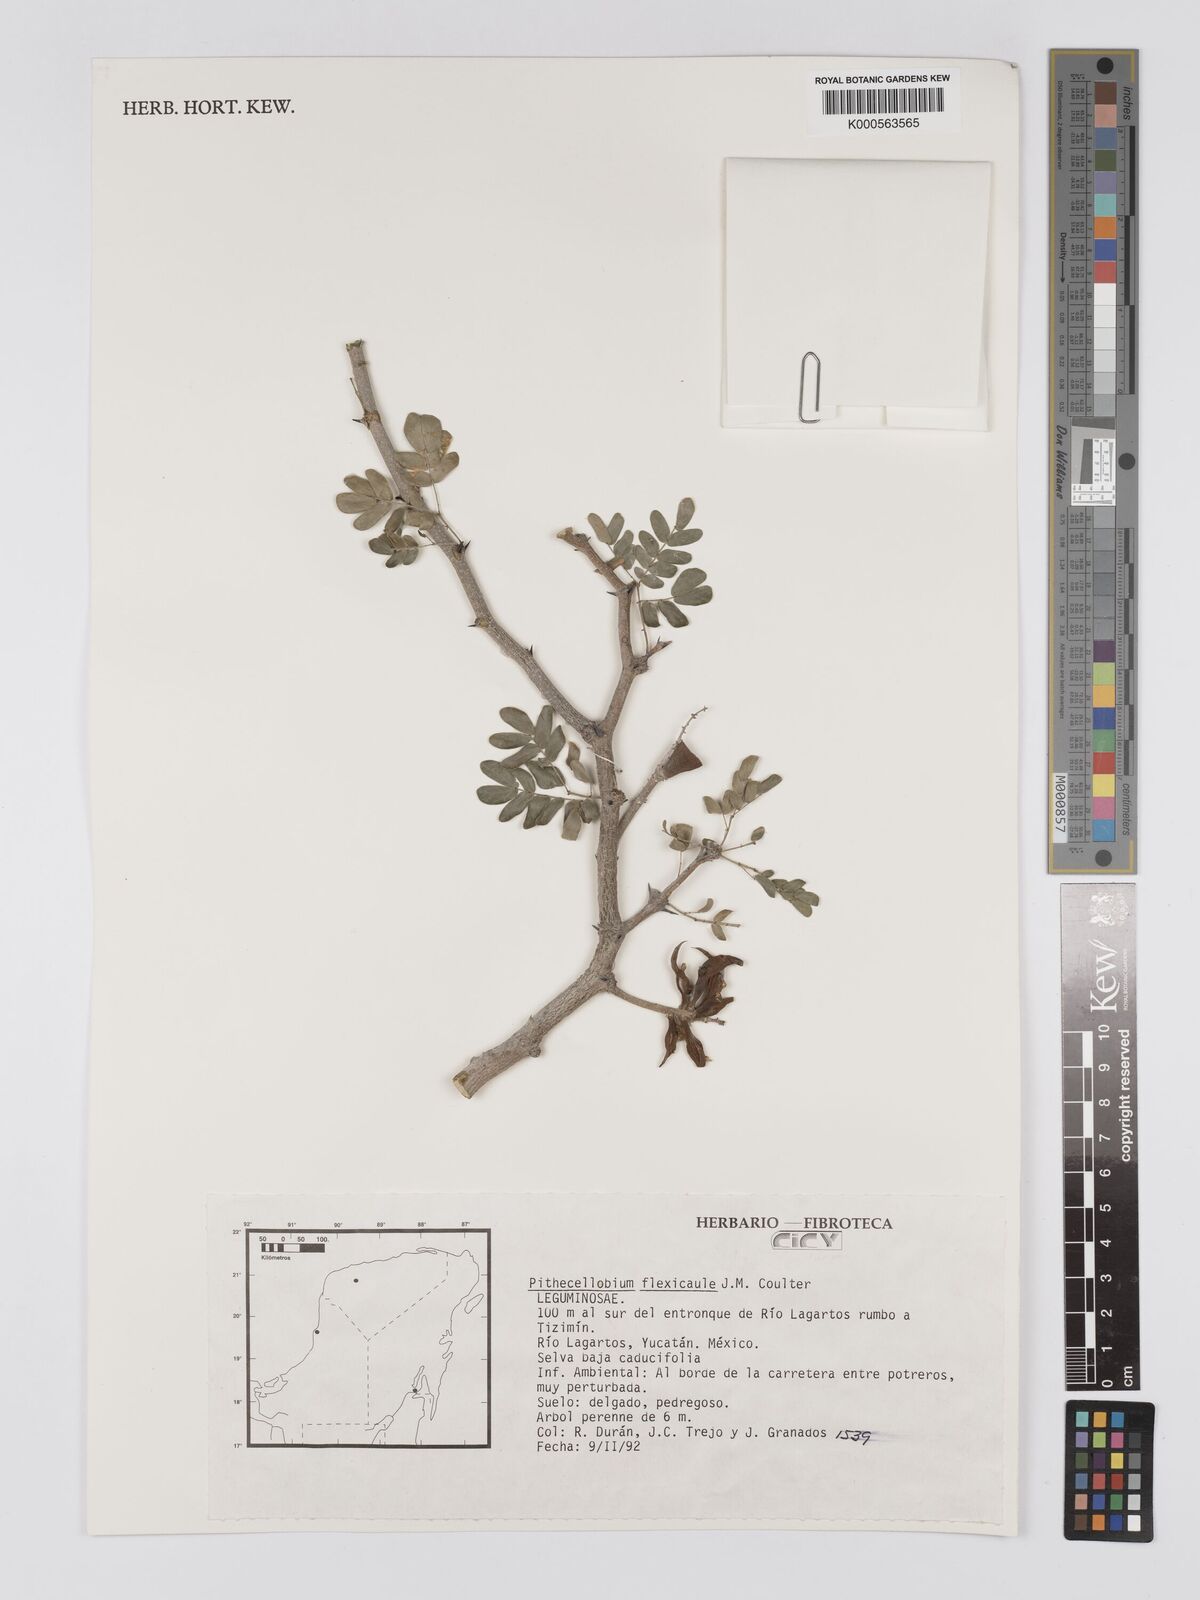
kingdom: Plantae
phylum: Tracheophyta
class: Magnoliopsida
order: Fabales
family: Fabaceae
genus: Ebenopsis
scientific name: Ebenopsis ebano
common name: Ebony blackbead
